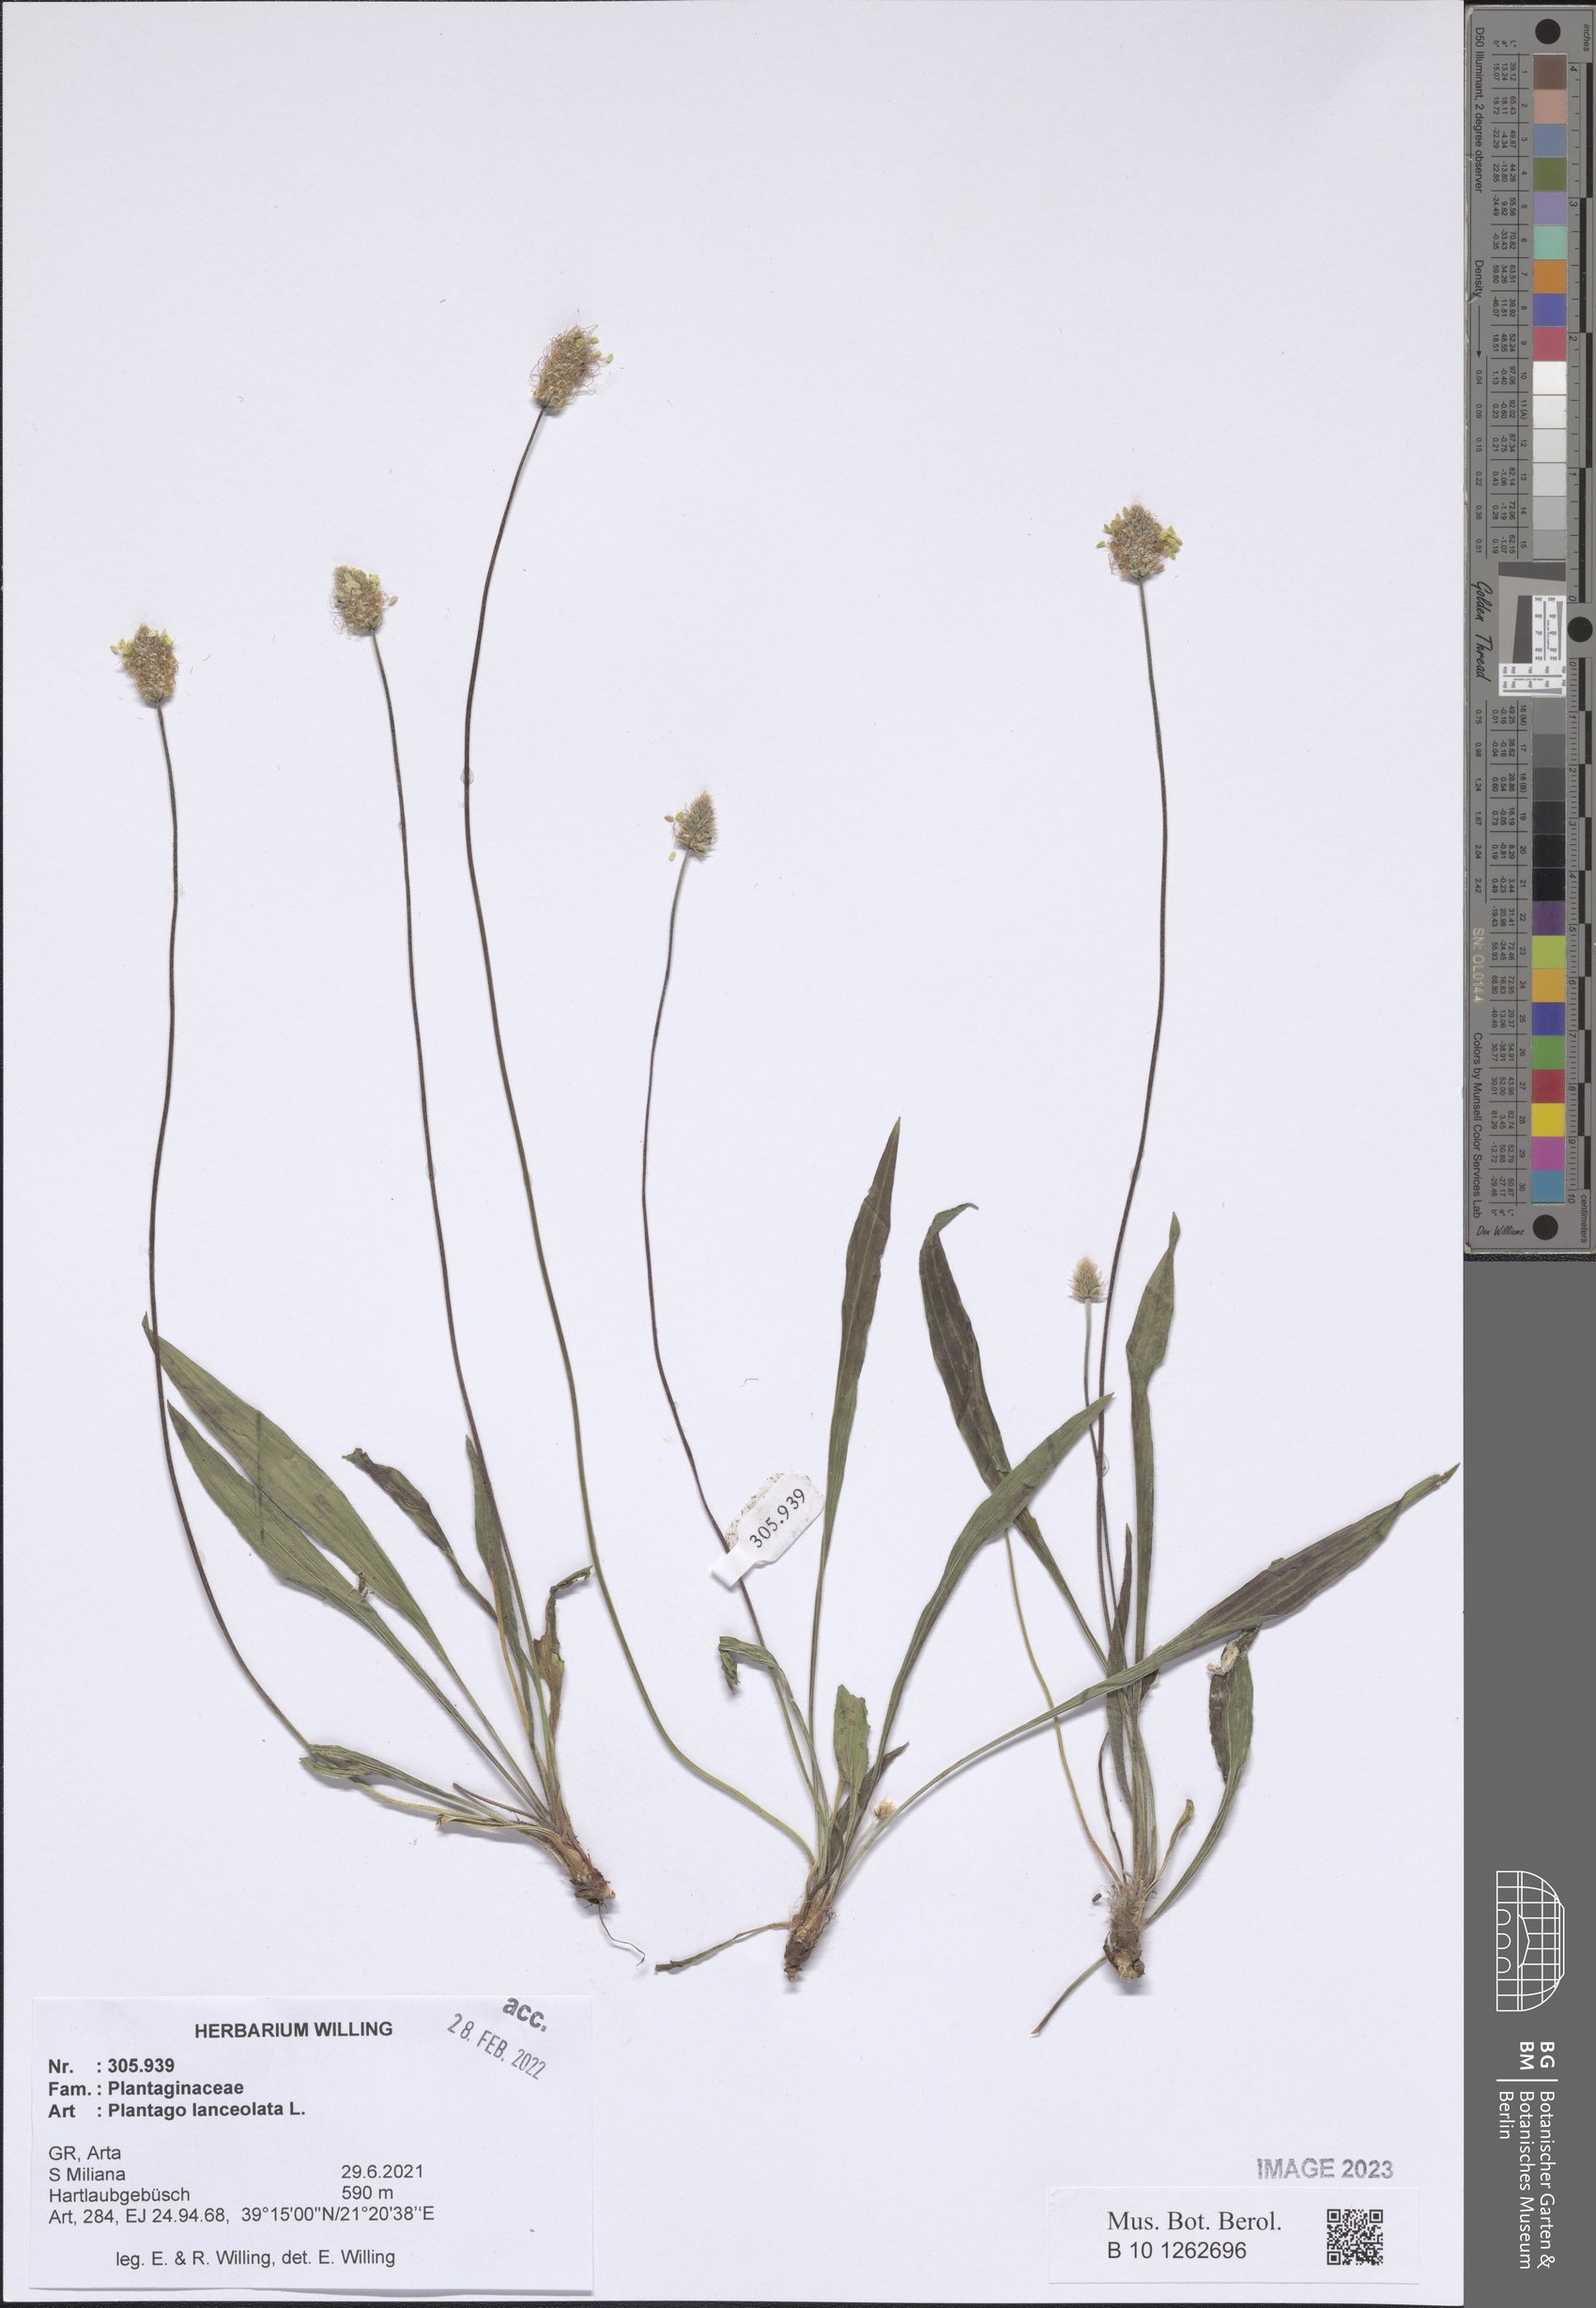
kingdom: Plantae
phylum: Tracheophyta
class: Magnoliopsida
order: Lamiales
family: Plantaginaceae
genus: Plantago
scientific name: Plantago lanceolata
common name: Ribwort plantain
